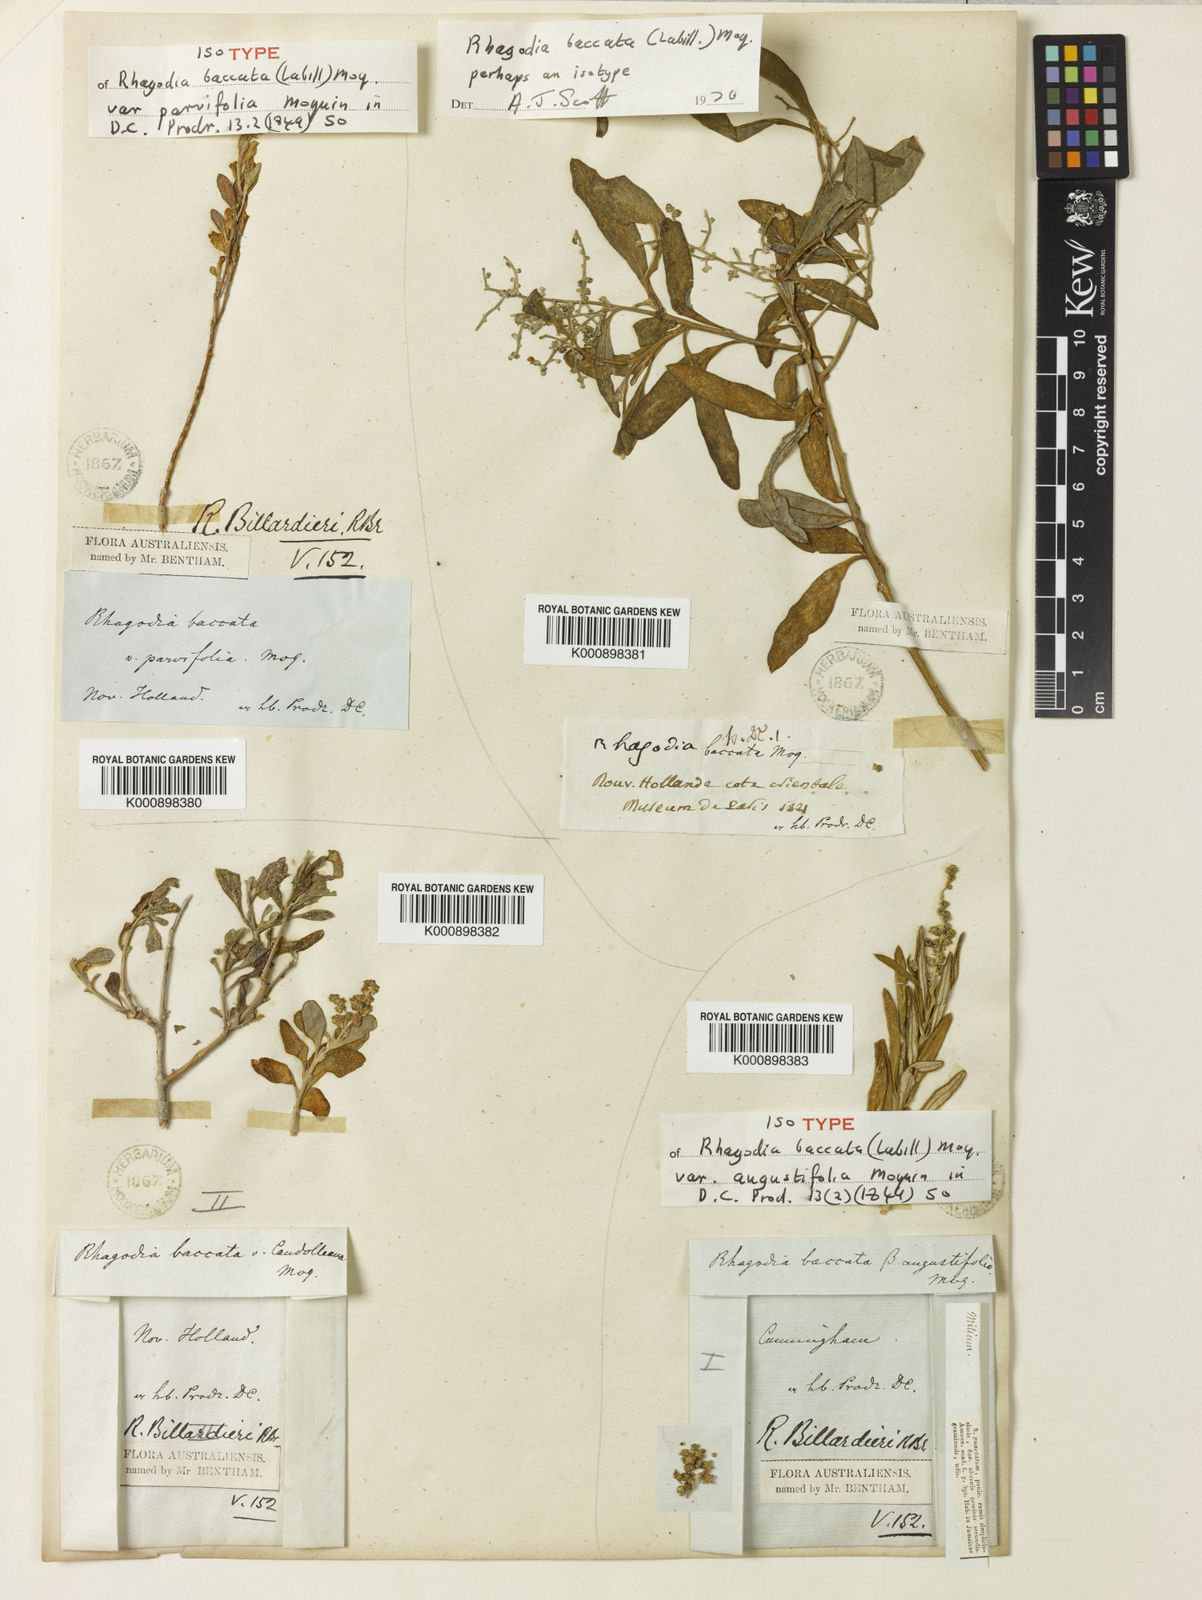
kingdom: Plantae
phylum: Tracheophyta
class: Magnoliopsida
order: Caryophyllales
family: Amaranthaceae
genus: Chenopodium
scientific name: Chenopodium baccatum
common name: Coastal-saltbush
